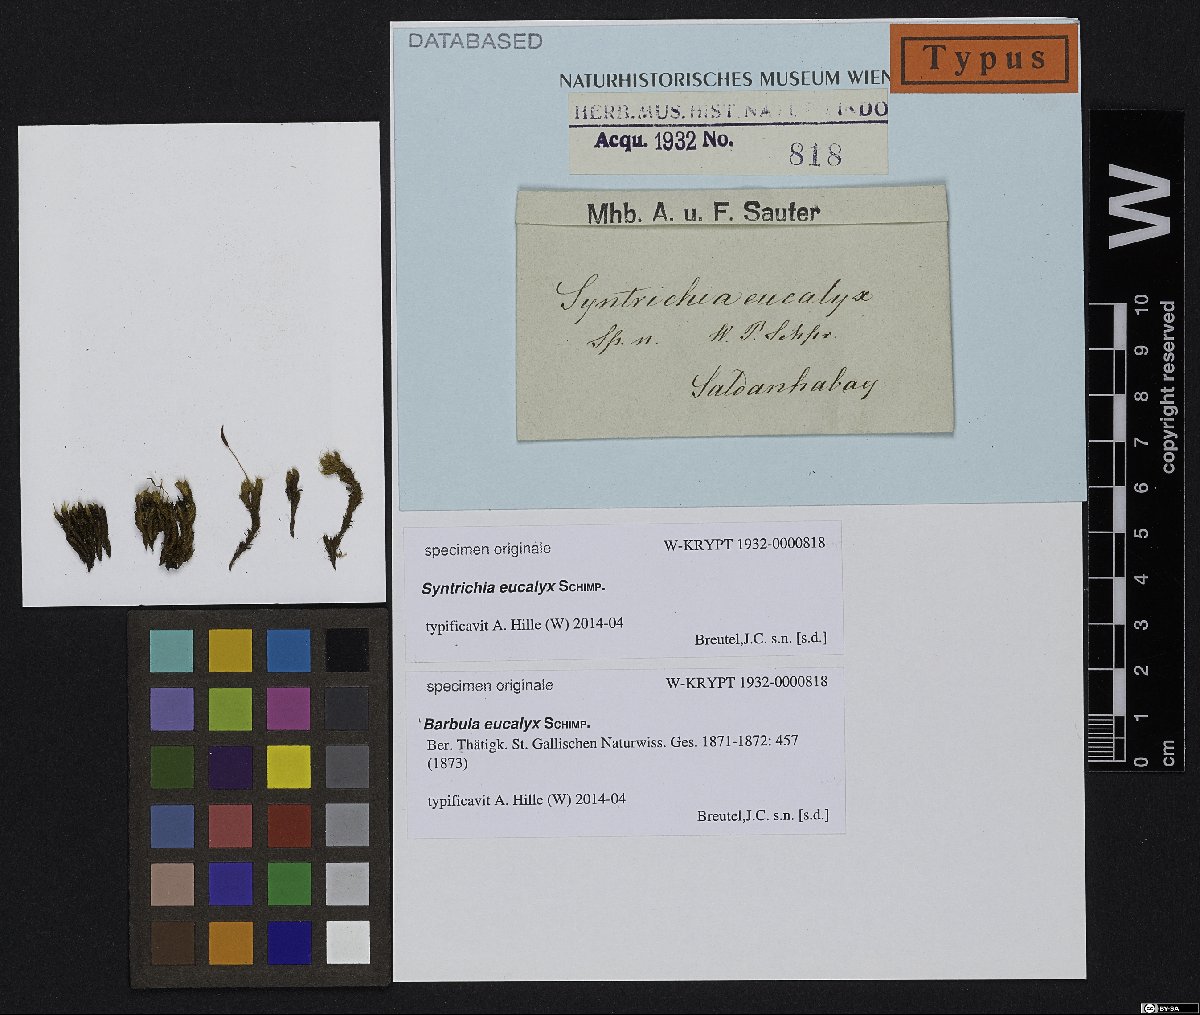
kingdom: Plantae
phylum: Bryophyta
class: Bryopsida
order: Pottiales
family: Pottiaceae
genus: Barbula
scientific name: Barbula
